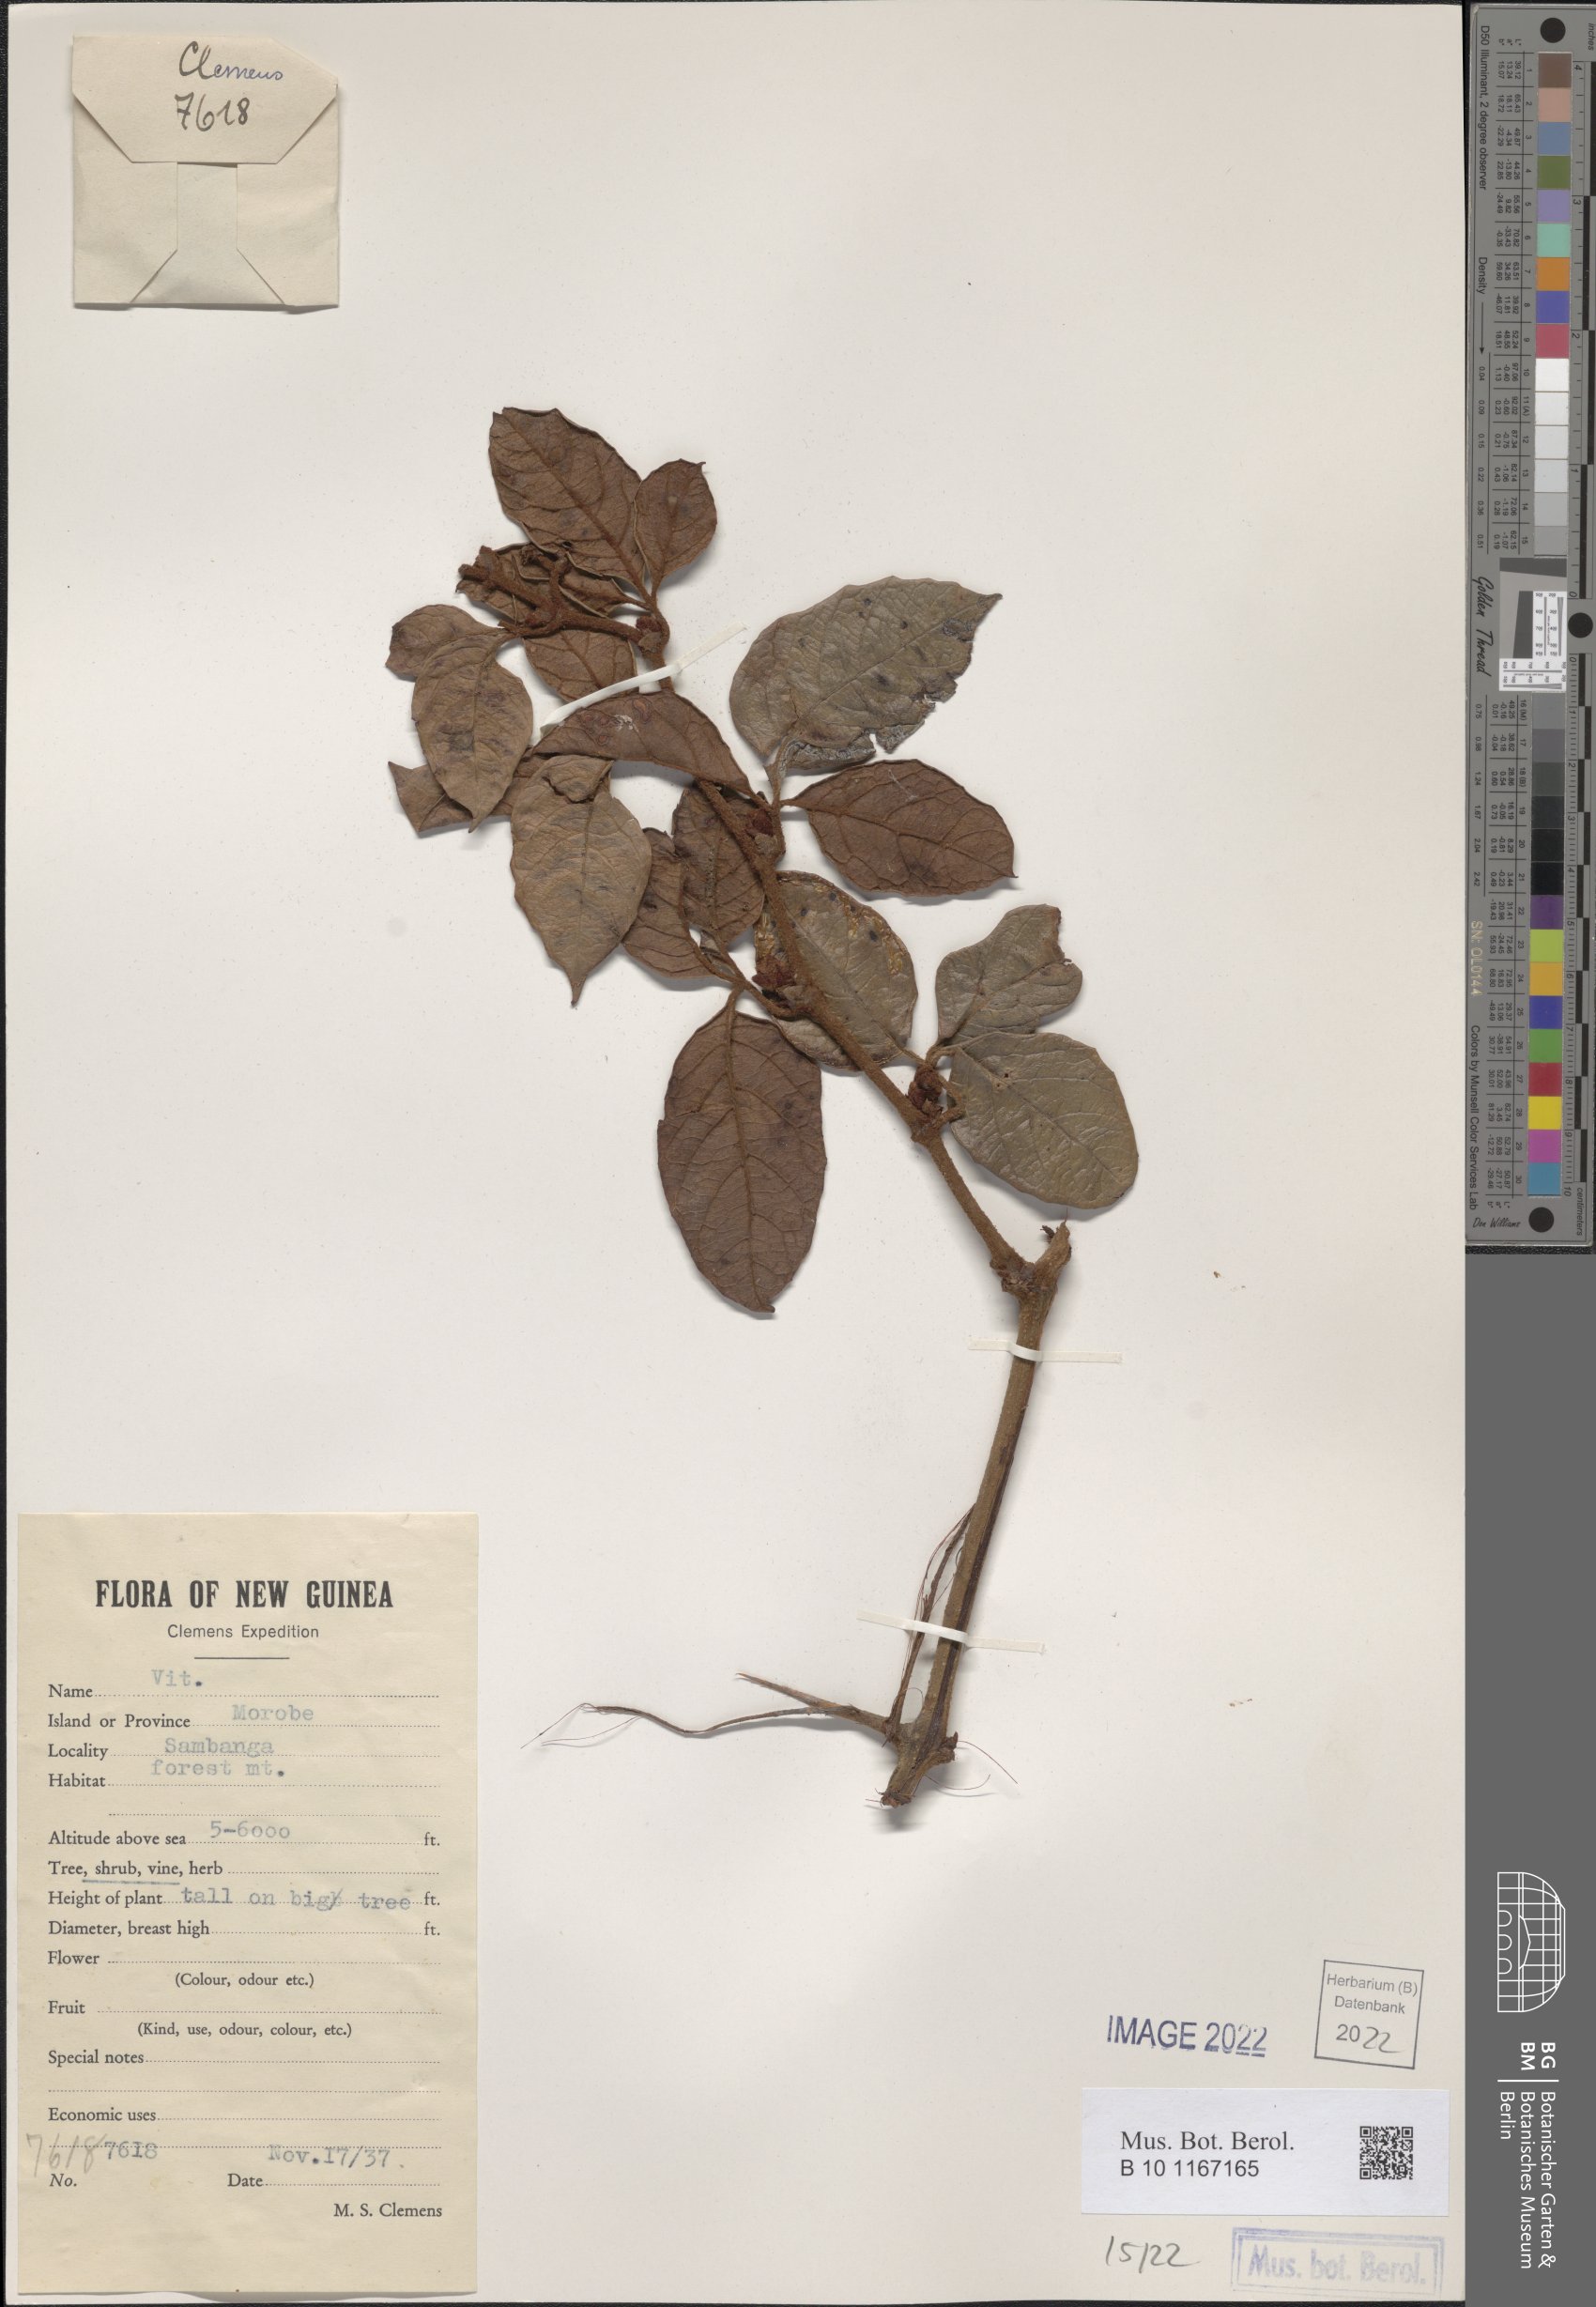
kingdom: Plantae
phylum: Tracheophyta
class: Magnoliopsida
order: Vitales
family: Vitaceae
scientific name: Vitaceae
